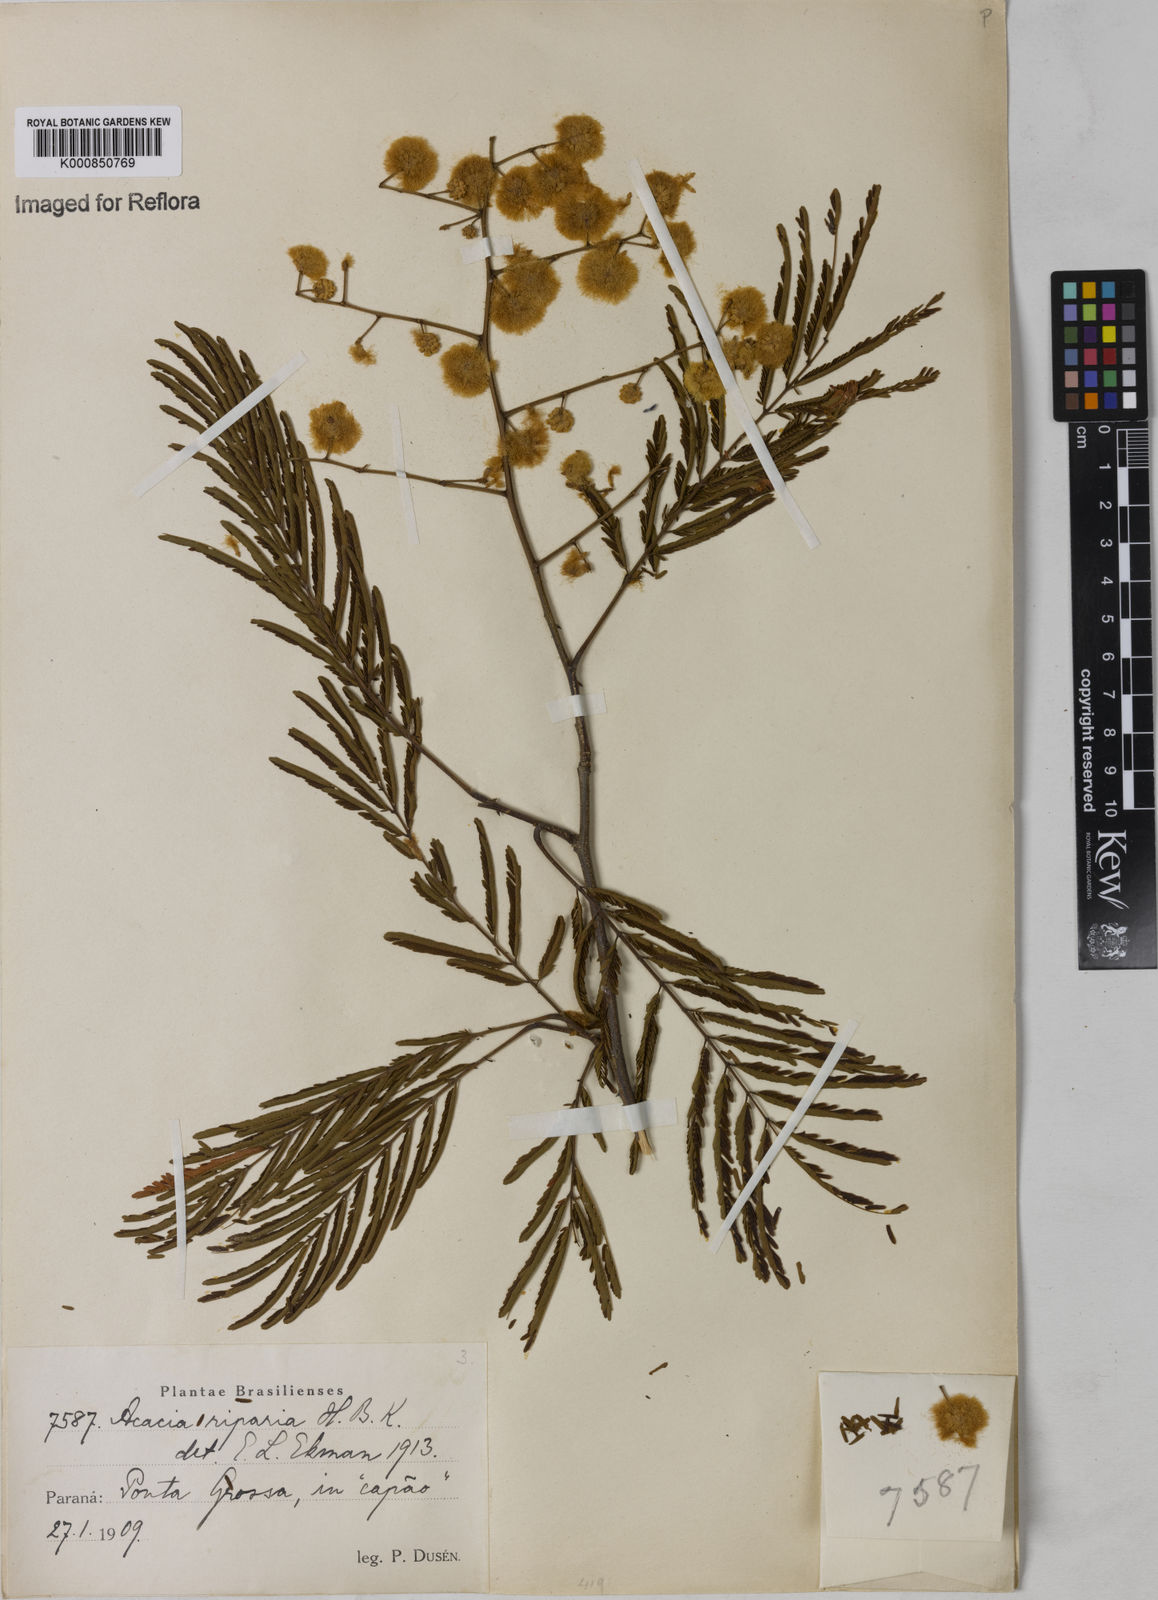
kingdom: Plantae
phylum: Tracheophyta
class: Magnoliopsida
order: Fabales
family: Fabaceae
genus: Senegalia
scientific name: Senegalia riparia
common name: Catch-and-keep
